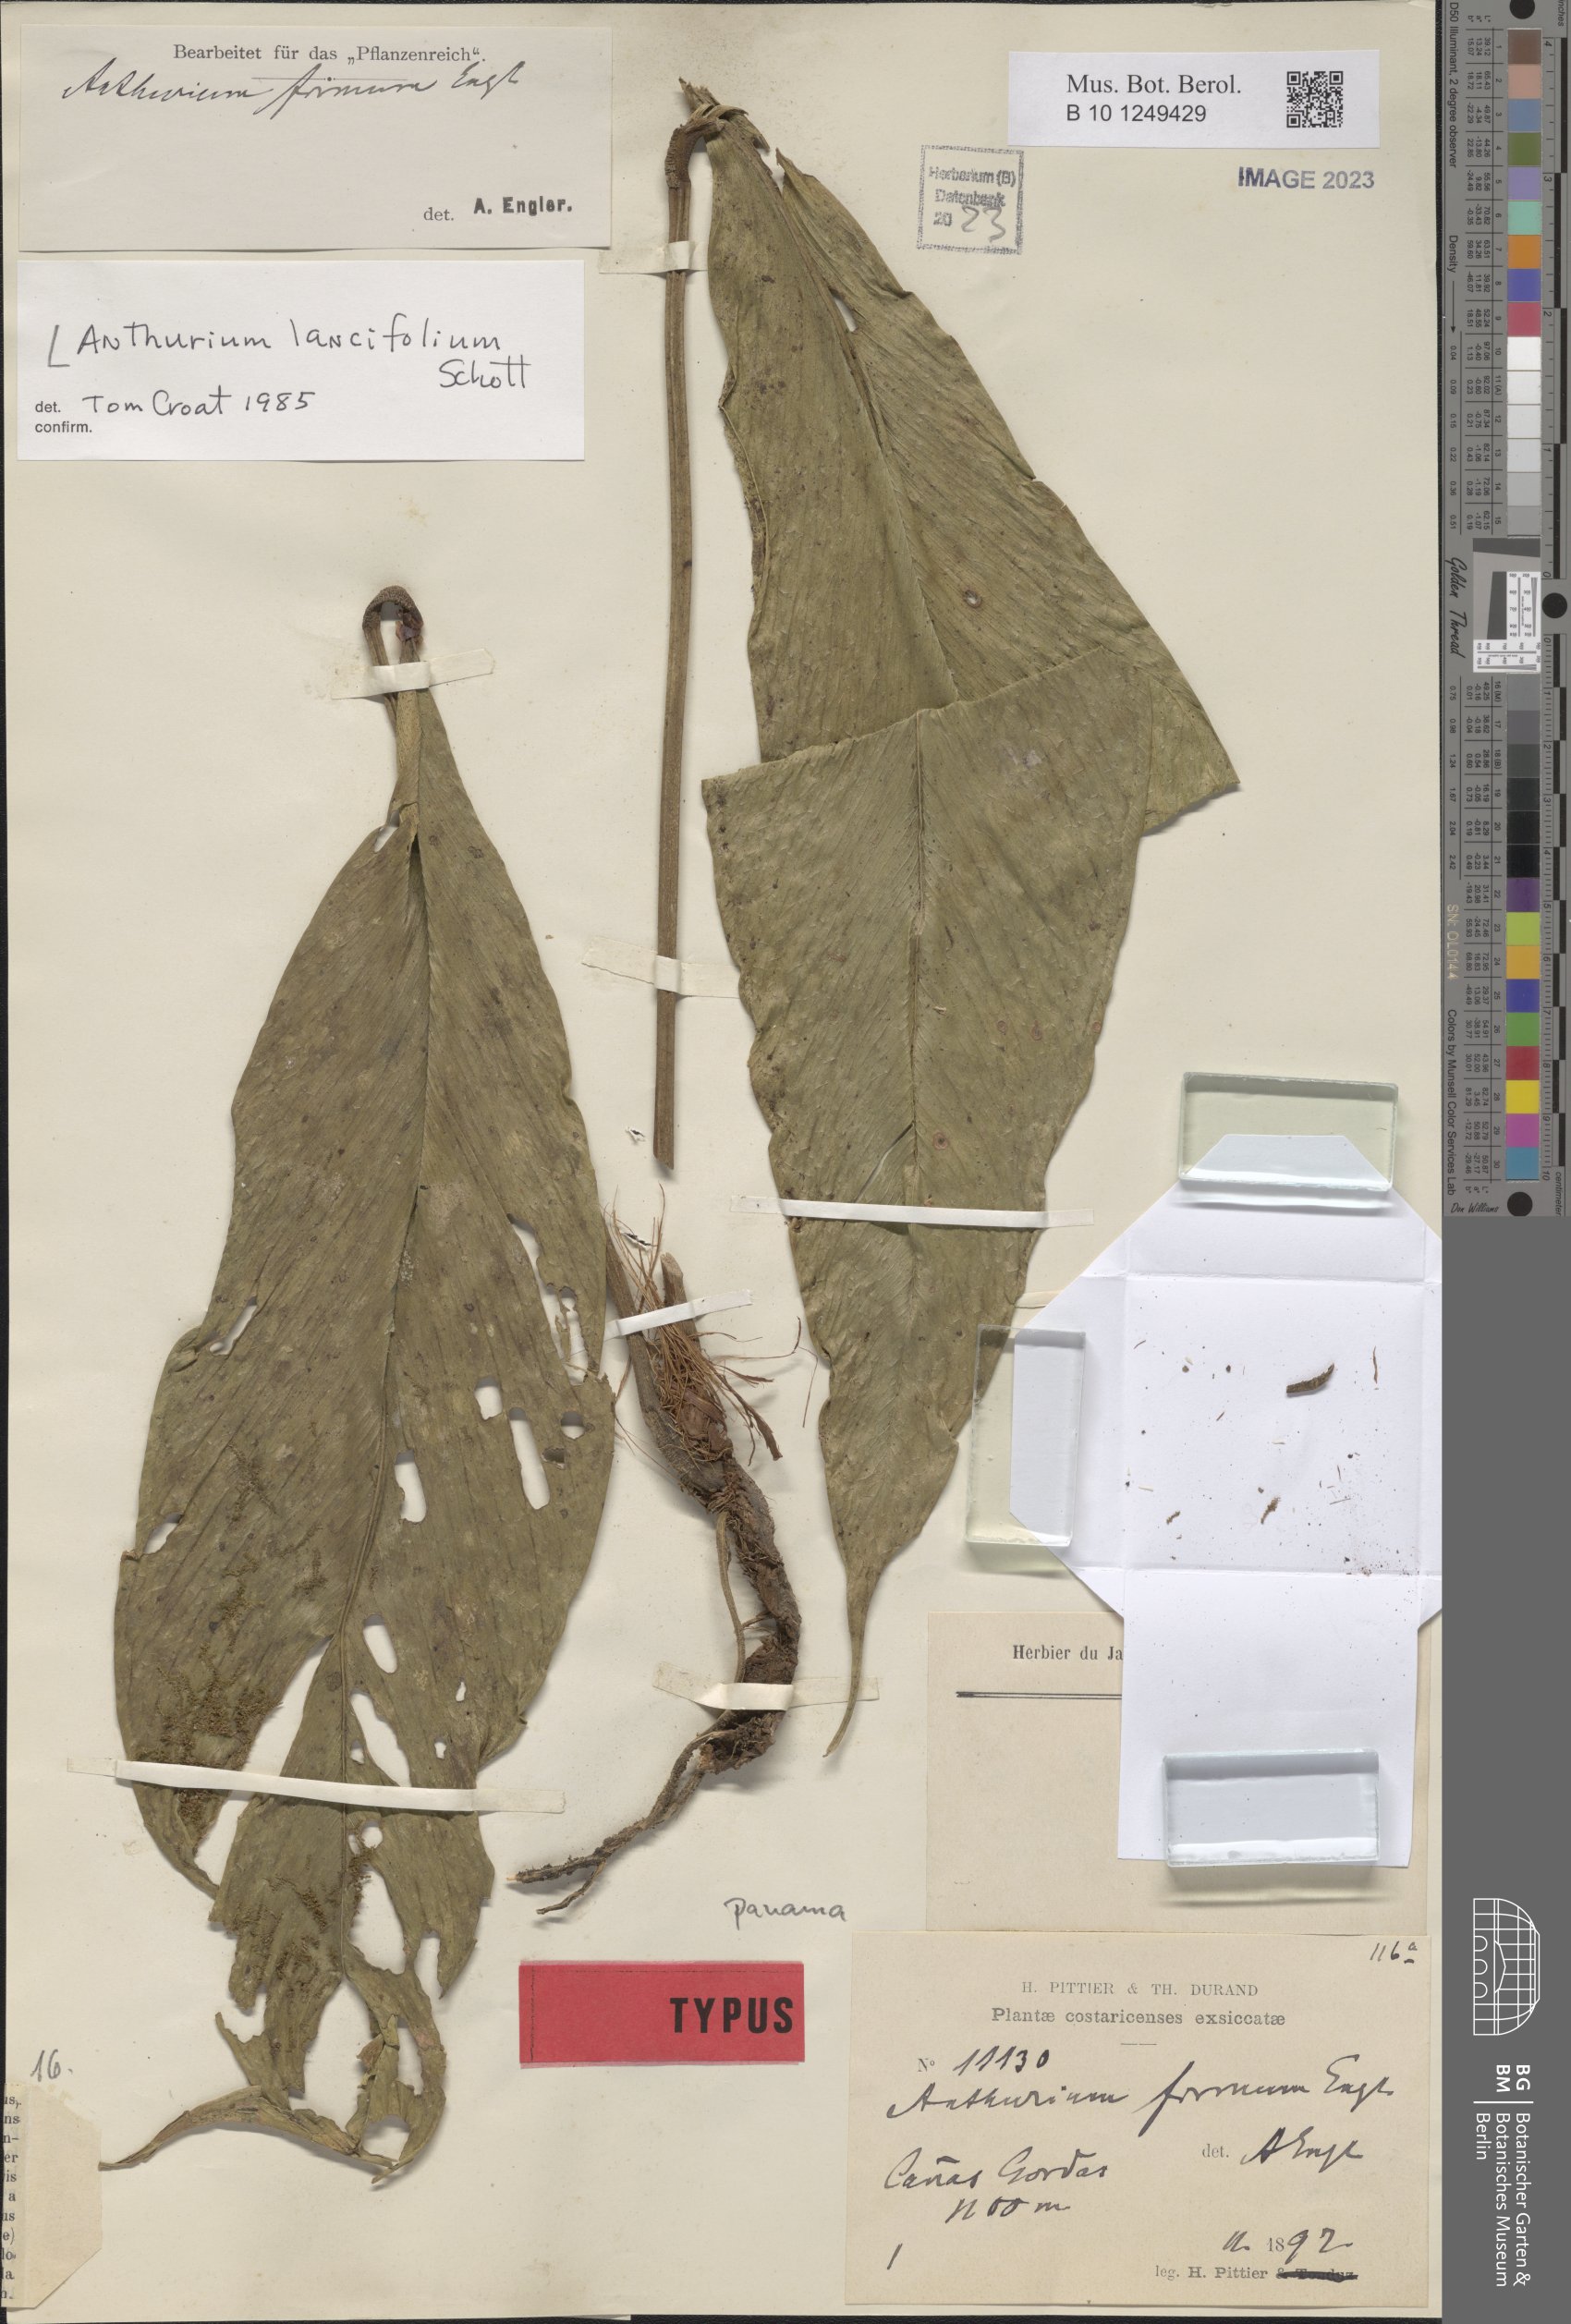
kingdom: Plantae
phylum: Tracheophyta
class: Liliopsida
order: Alismatales
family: Araceae
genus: Anthurium
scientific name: Anthurium lancifolium
